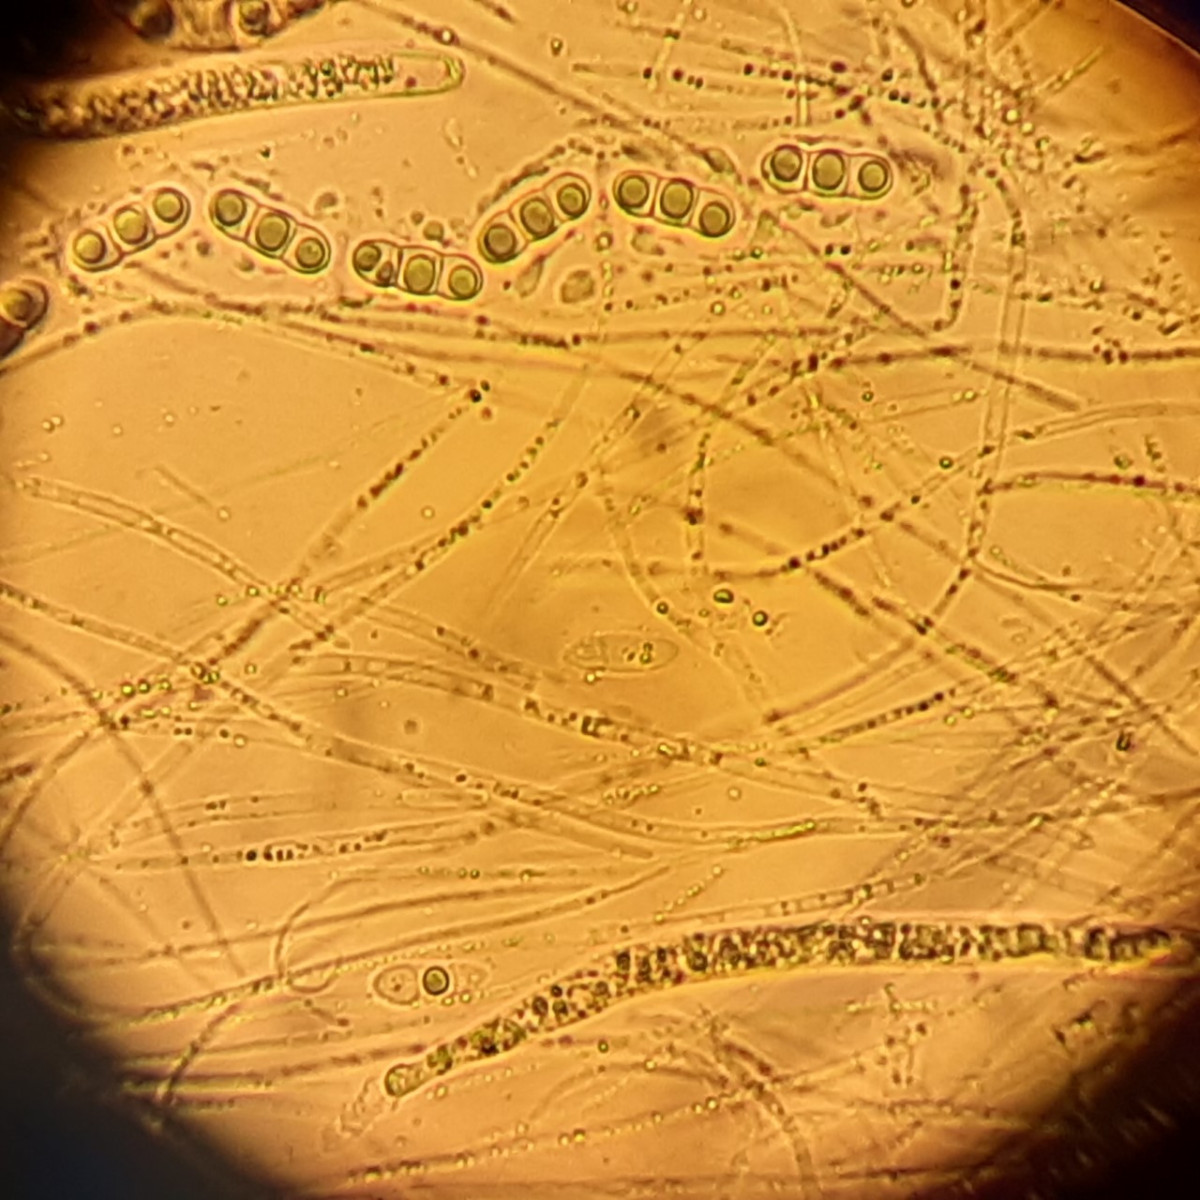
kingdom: Fungi
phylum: Ascomycota
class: Sordariomycetes
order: Xylariales
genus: Melomastia
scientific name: Melomastia mastoidea
